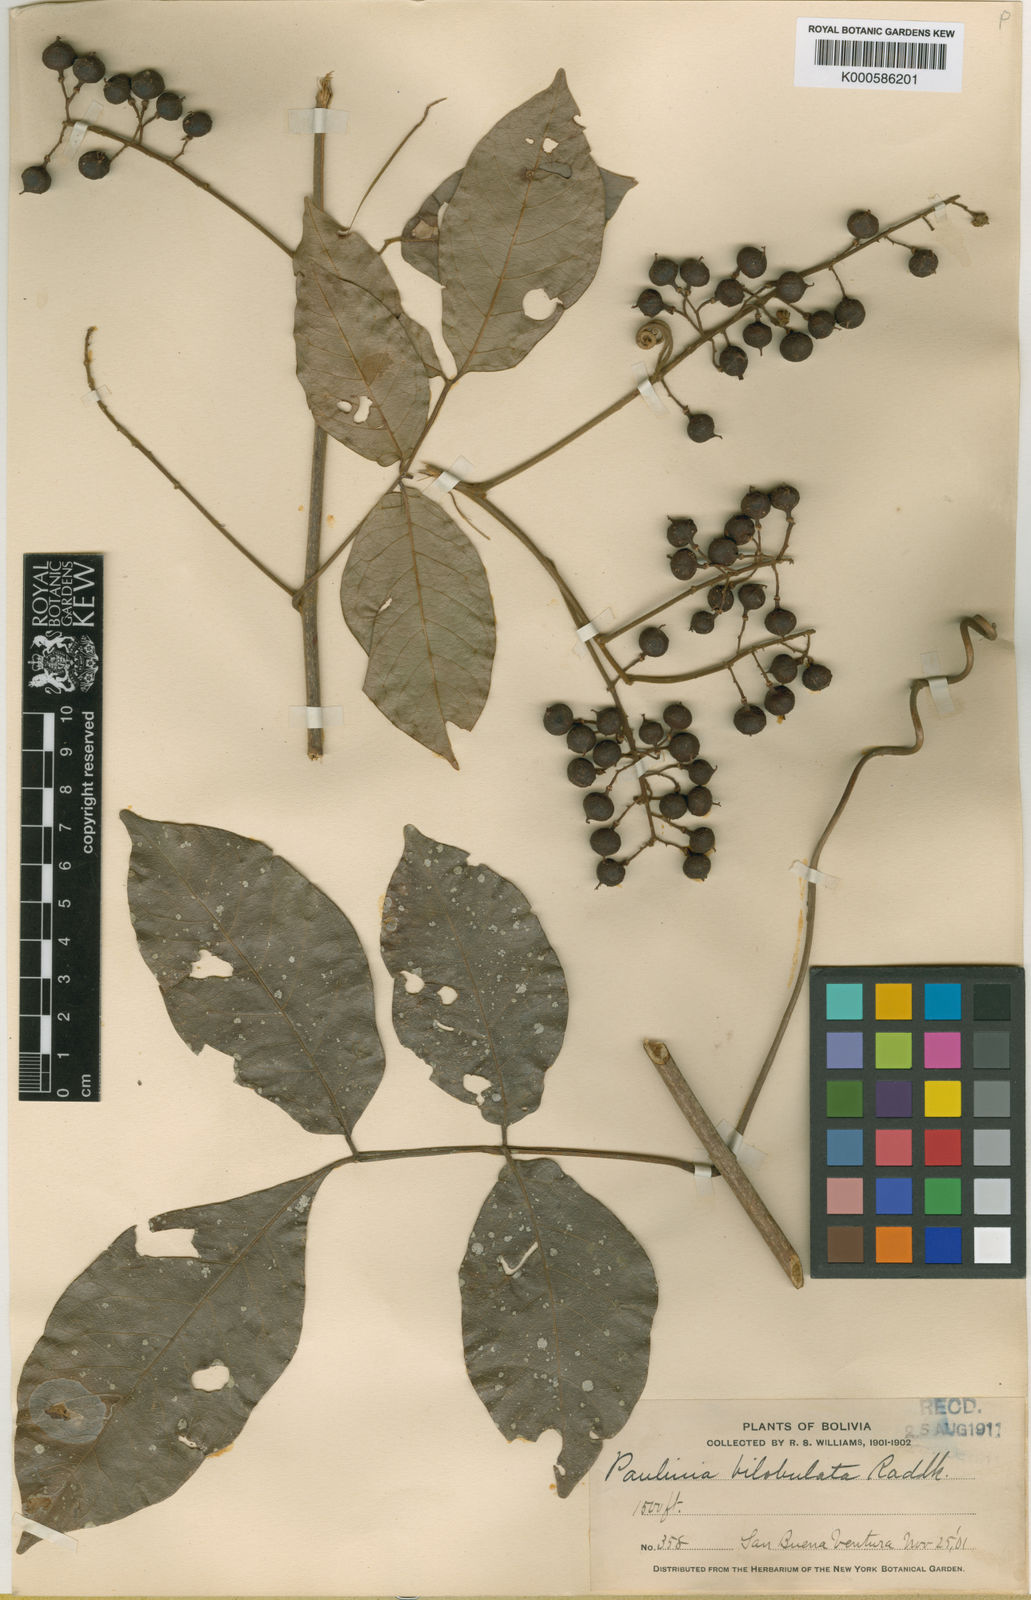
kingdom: Plantae
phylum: Tracheophyta
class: Magnoliopsida
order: Sapindales
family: Sapindaceae
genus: Paullinia
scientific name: Paullinia bilobulata
